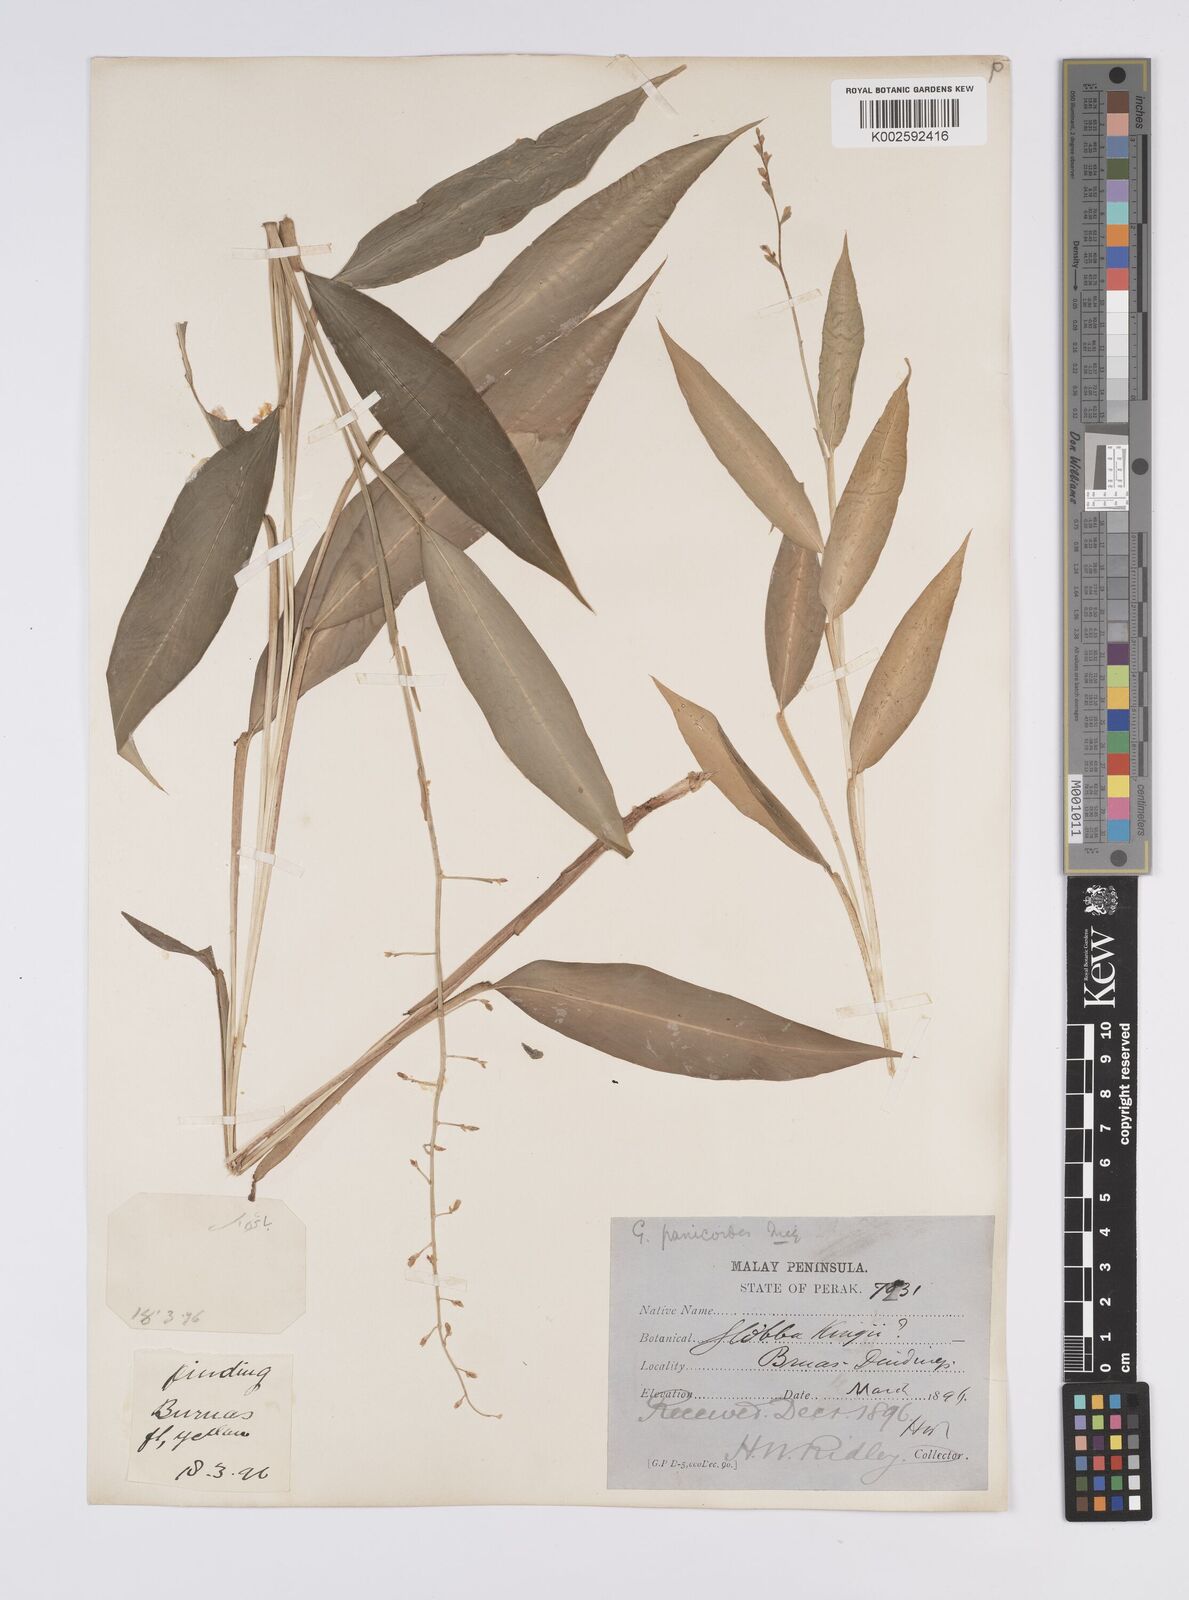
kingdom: Plantae
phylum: Tracheophyta
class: Liliopsida
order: Zingiberales
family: Zingiberaceae
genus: Globba
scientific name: Globba pendula
